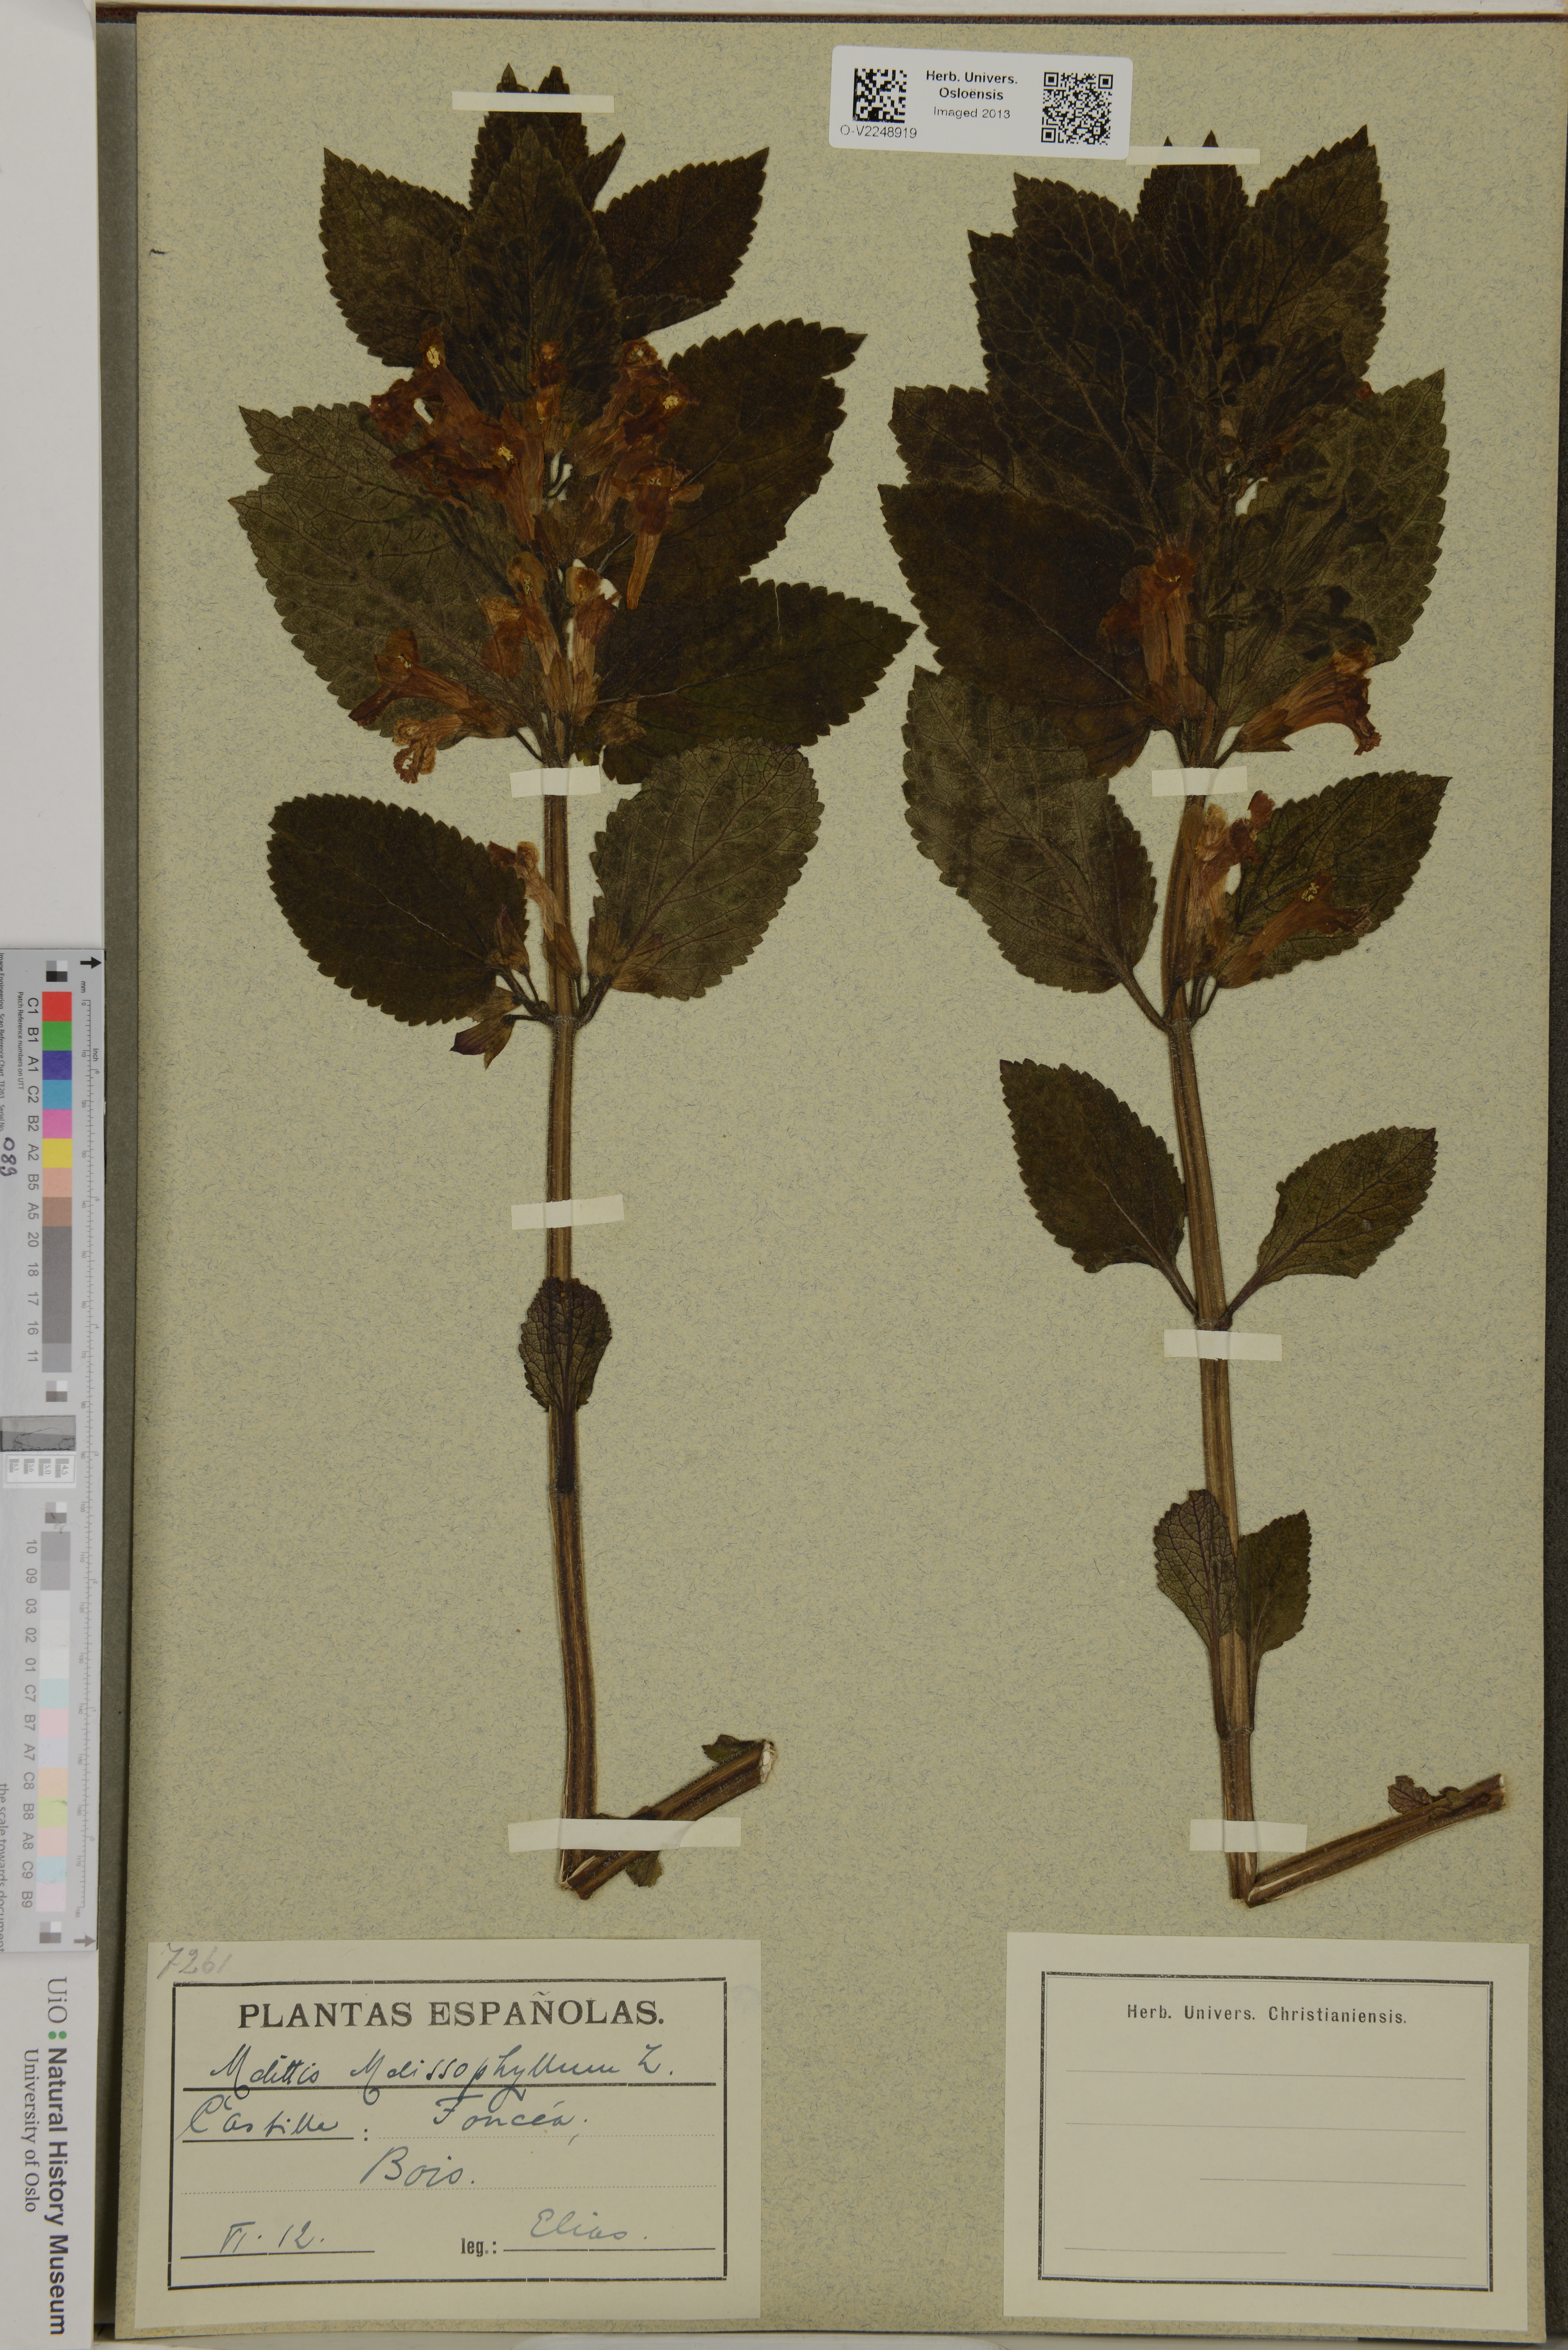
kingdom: Plantae
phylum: Tracheophyta
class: Magnoliopsida
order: Lamiales
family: Lamiaceae
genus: Melittis
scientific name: Melittis melissophyllum
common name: Bastard balm
